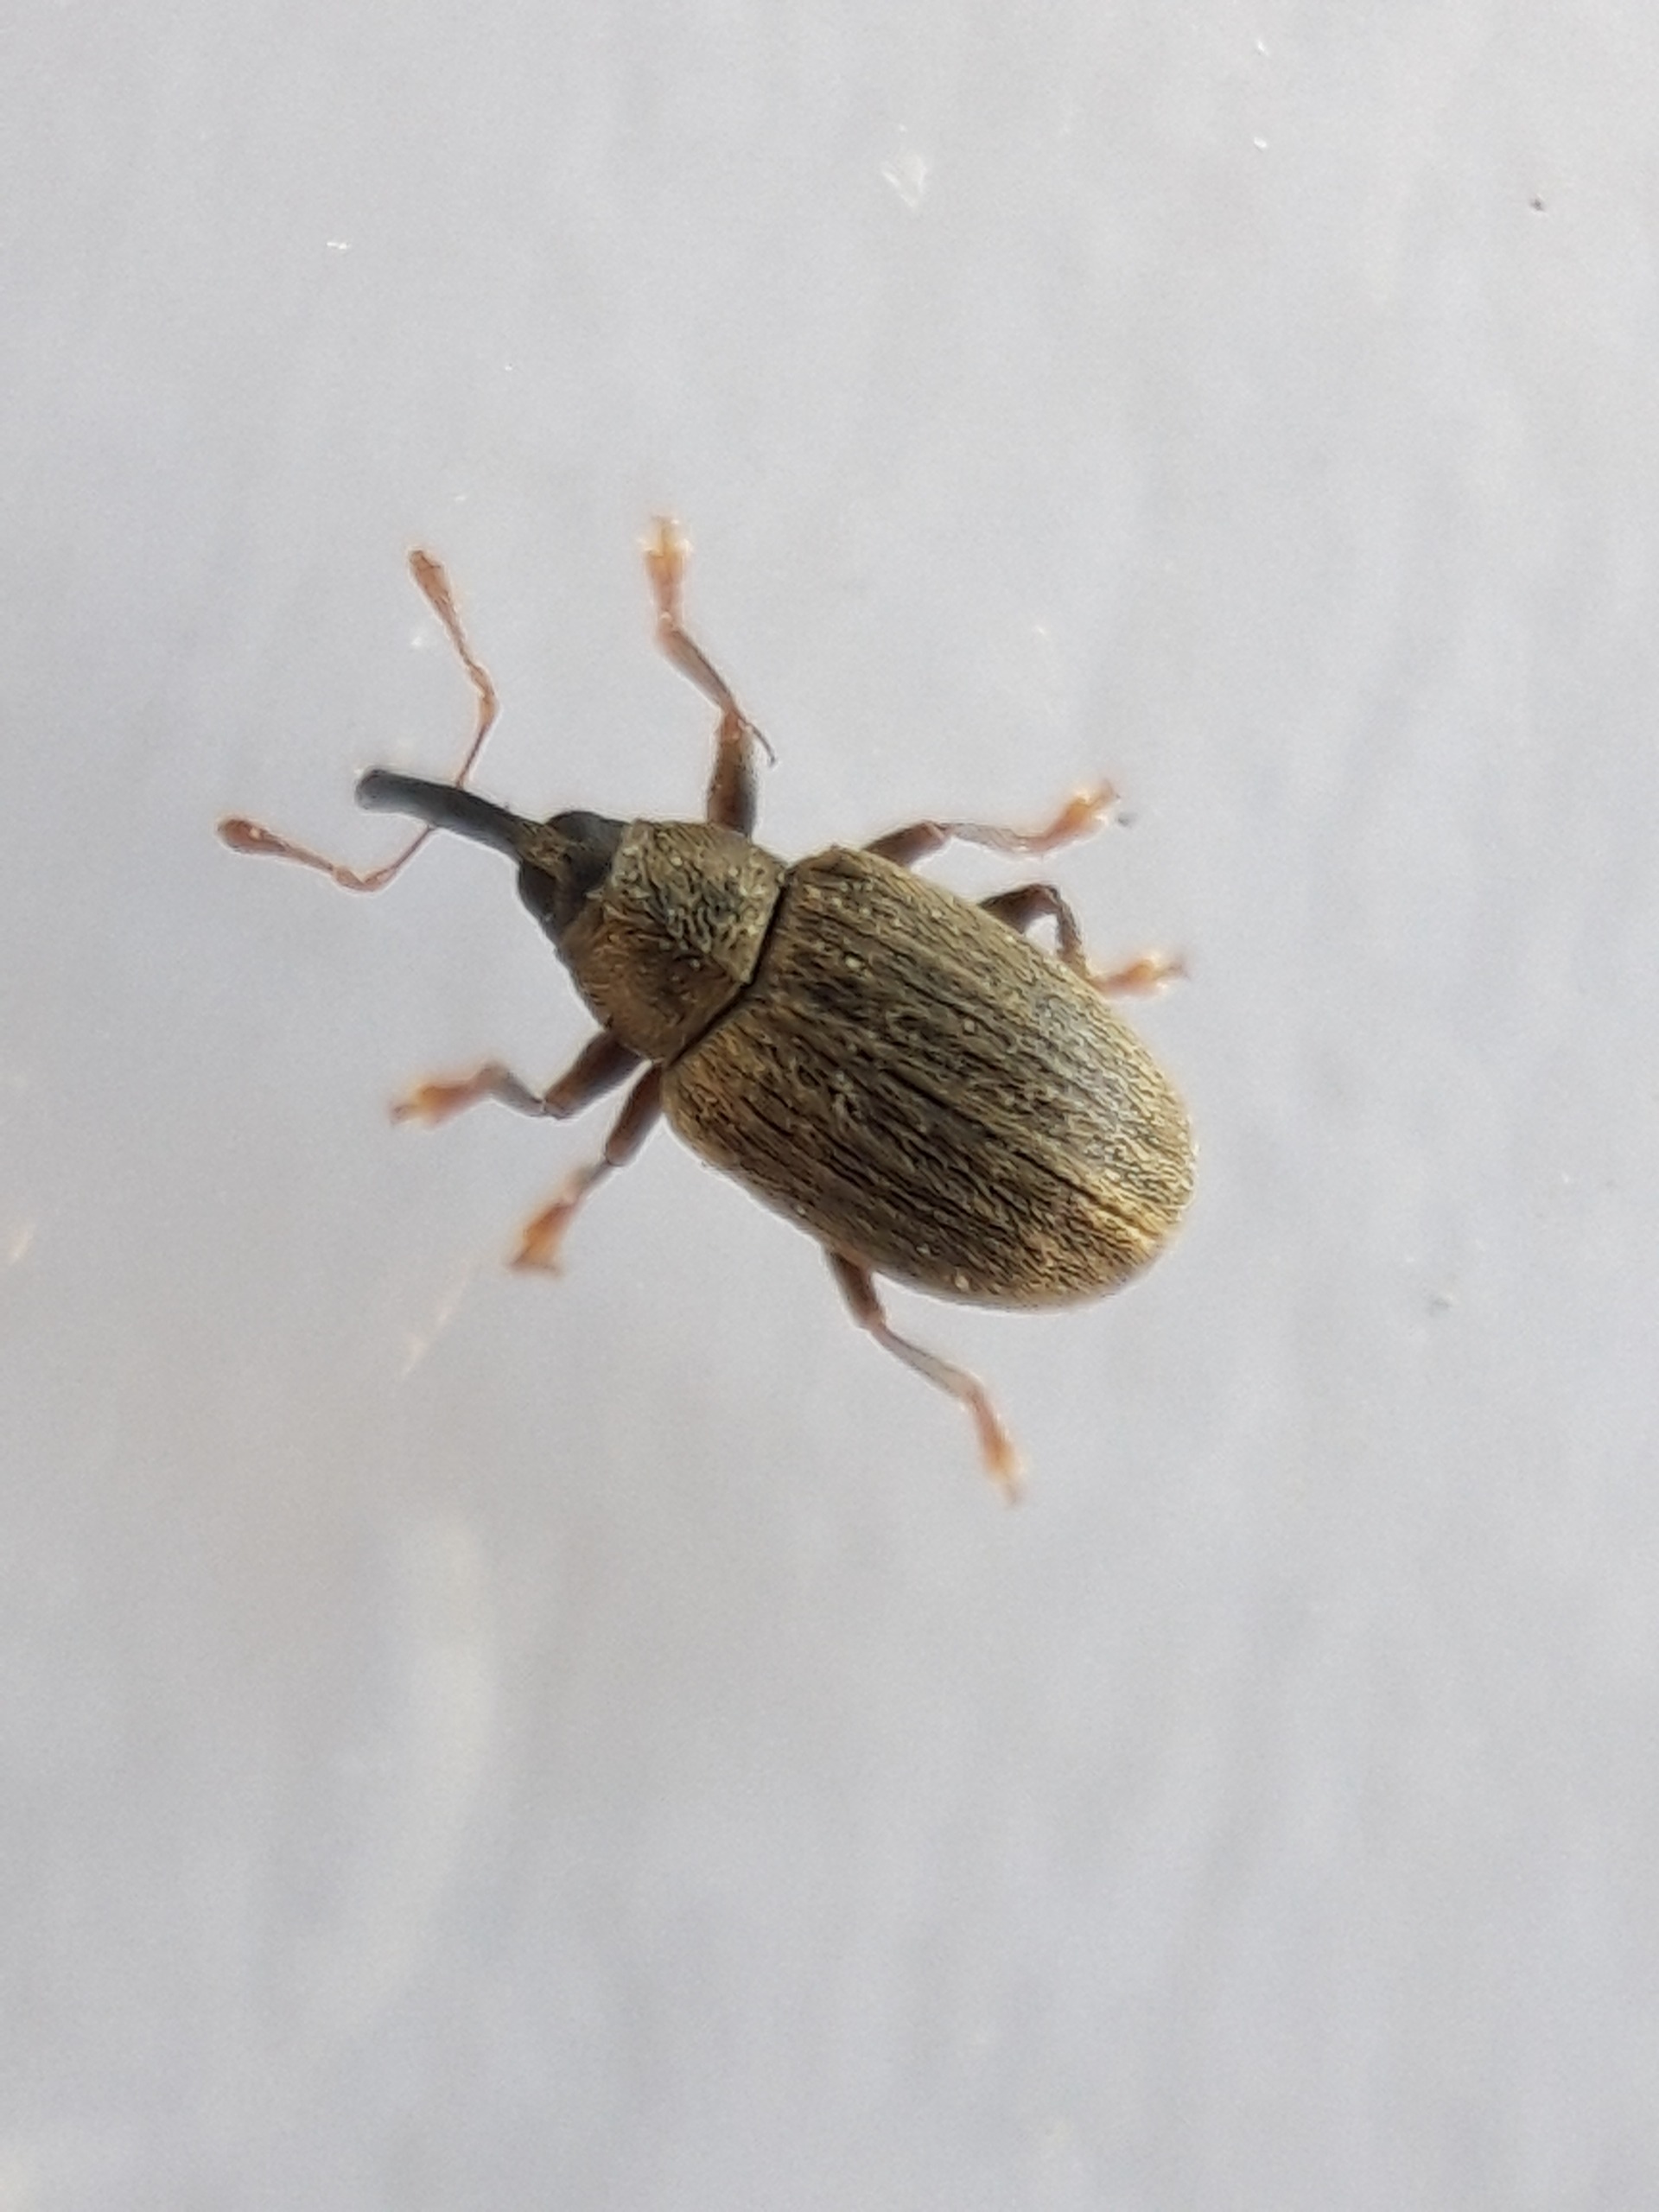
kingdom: Animalia
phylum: Arthropoda
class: Insecta
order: Coleoptera
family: Curculionidae
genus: Acalyptus
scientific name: Acalyptus carpini
